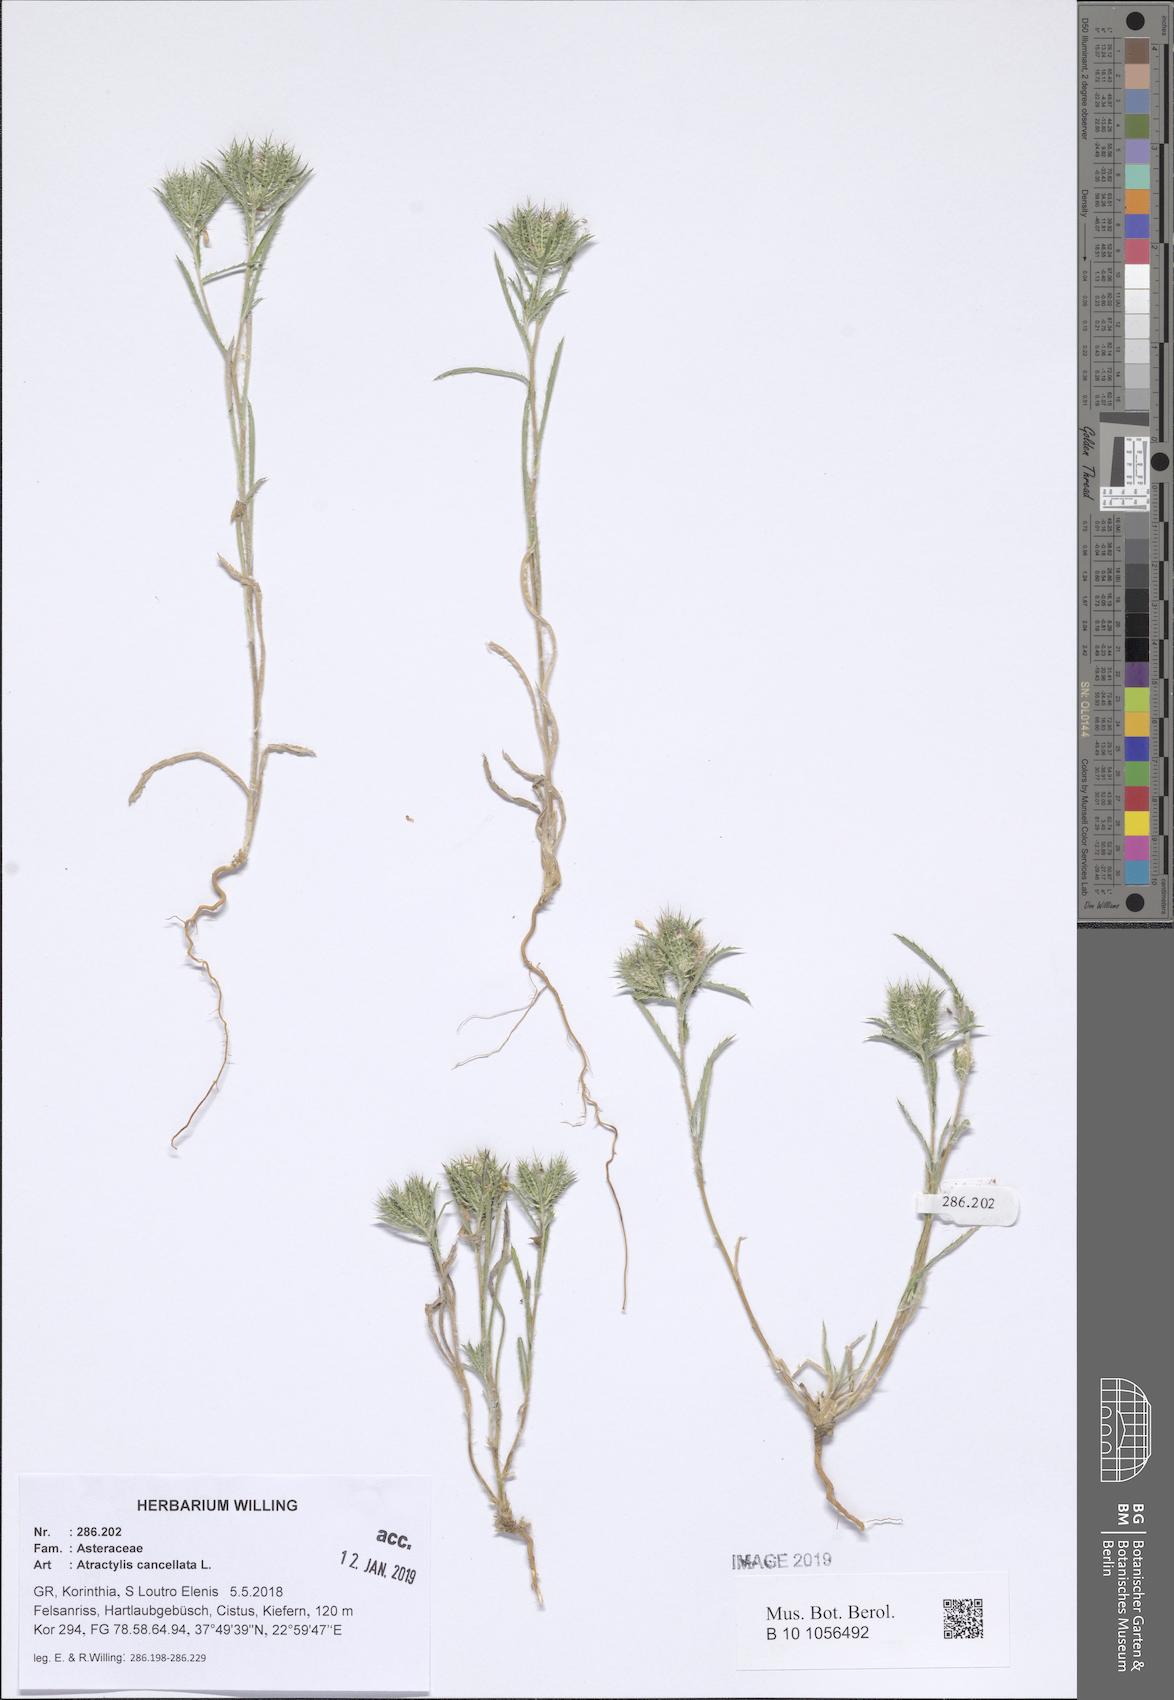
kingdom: Plantae
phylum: Tracheophyta
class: Magnoliopsida
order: Asterales
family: Asteraceae
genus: Atractylis
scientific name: Atractylis cancellata
